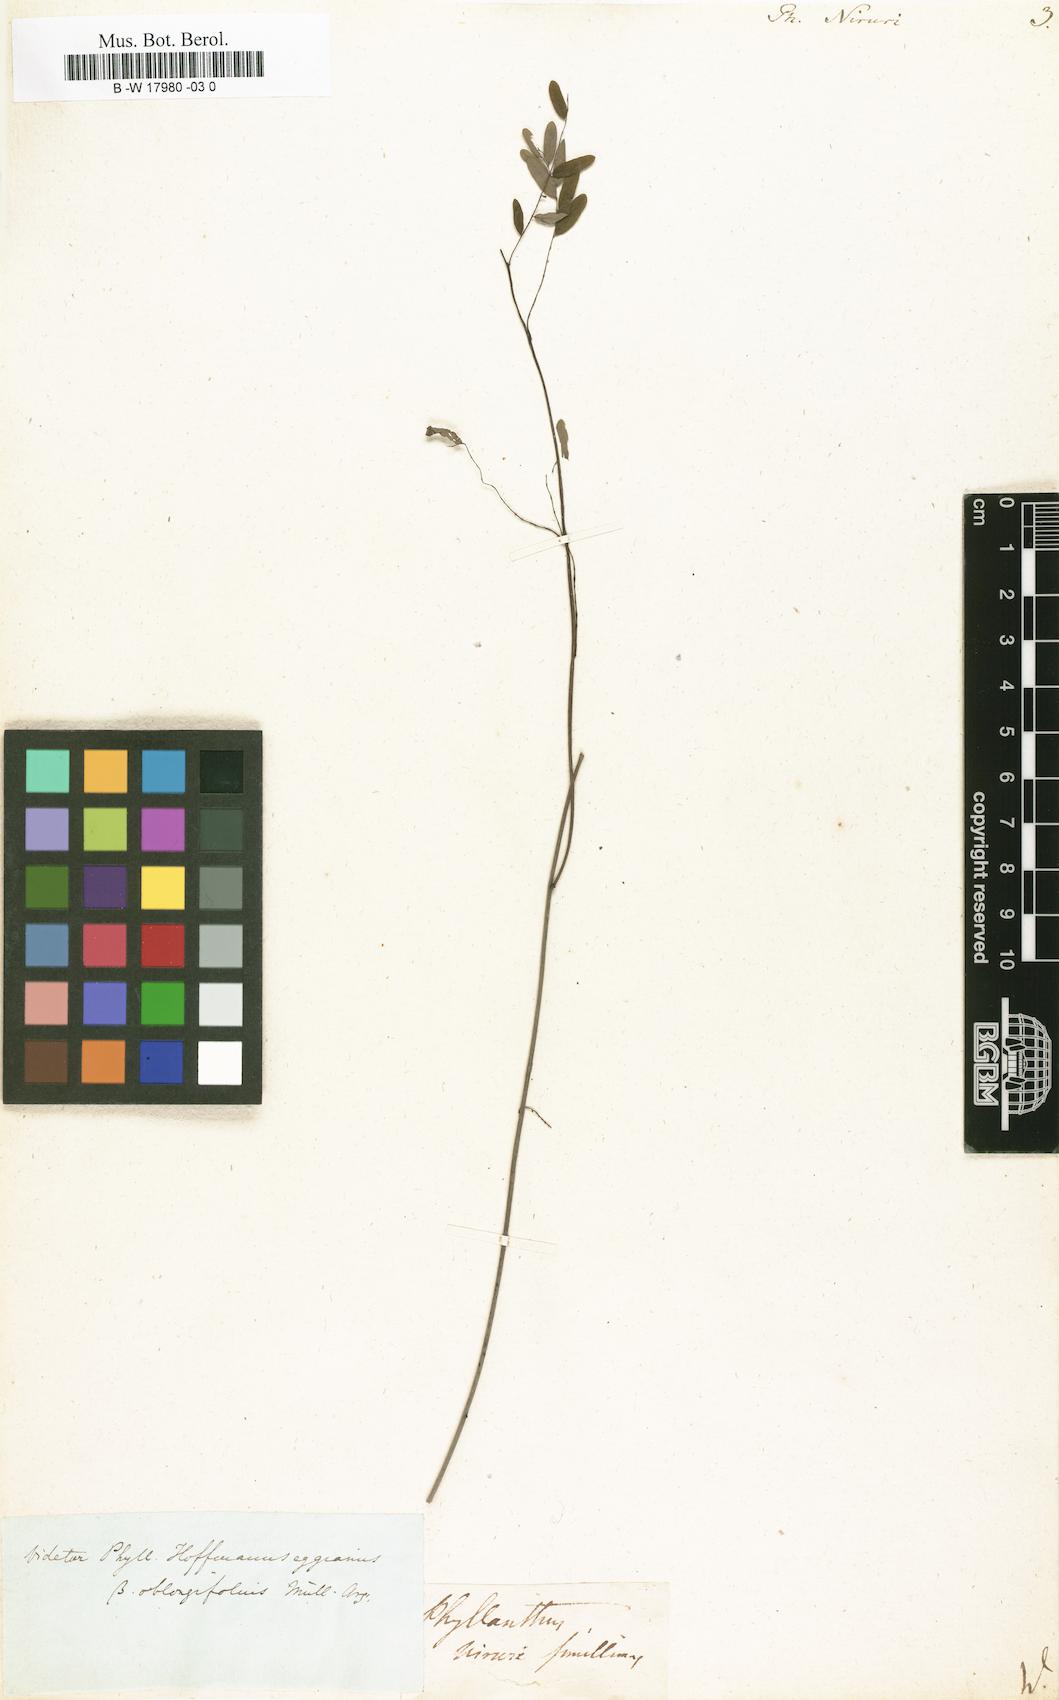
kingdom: Plantae
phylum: Tracheophyta
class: Magnoliopsida
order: Malpighiales
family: Phyllanthaceae
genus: Phyllanthus
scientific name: Phyllanthus niruri
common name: Niruri
